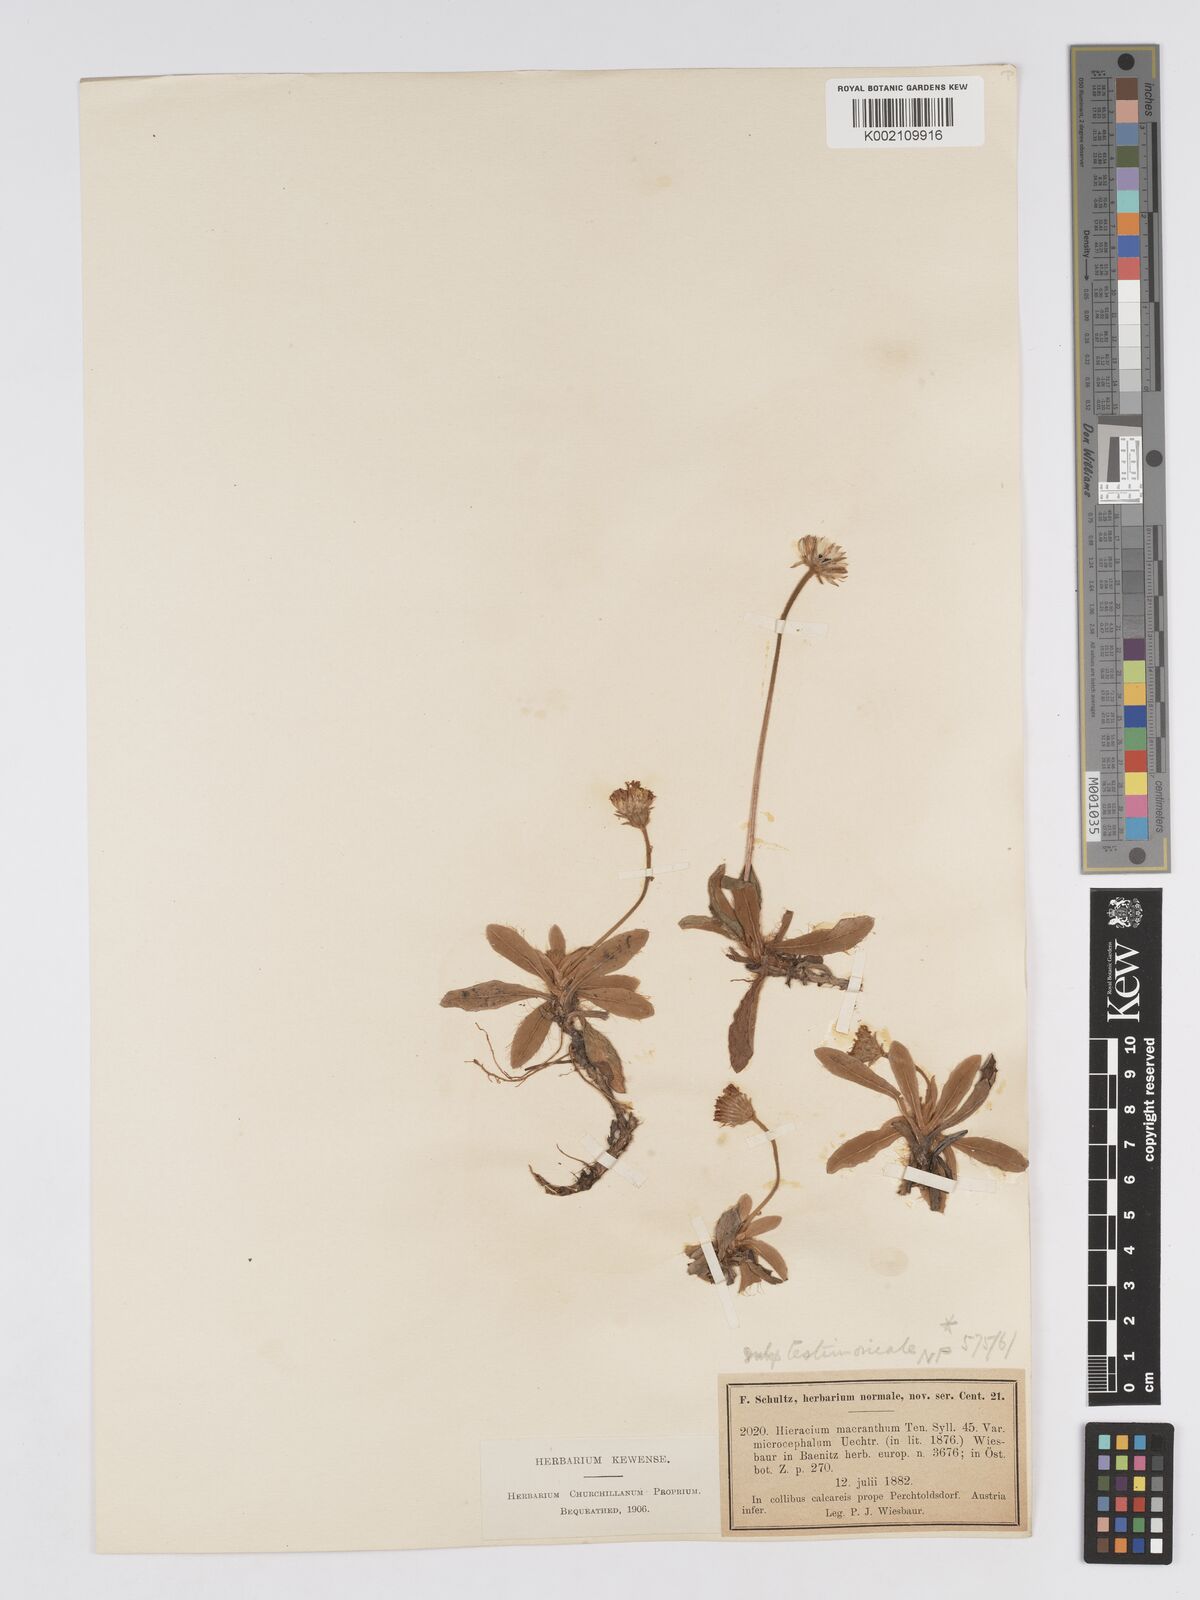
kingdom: Plantae
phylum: Tracheophyta
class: Magnoliopsida
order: Asterales
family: Asteraceae
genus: Pilosella
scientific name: Pilosella leucopsilon
